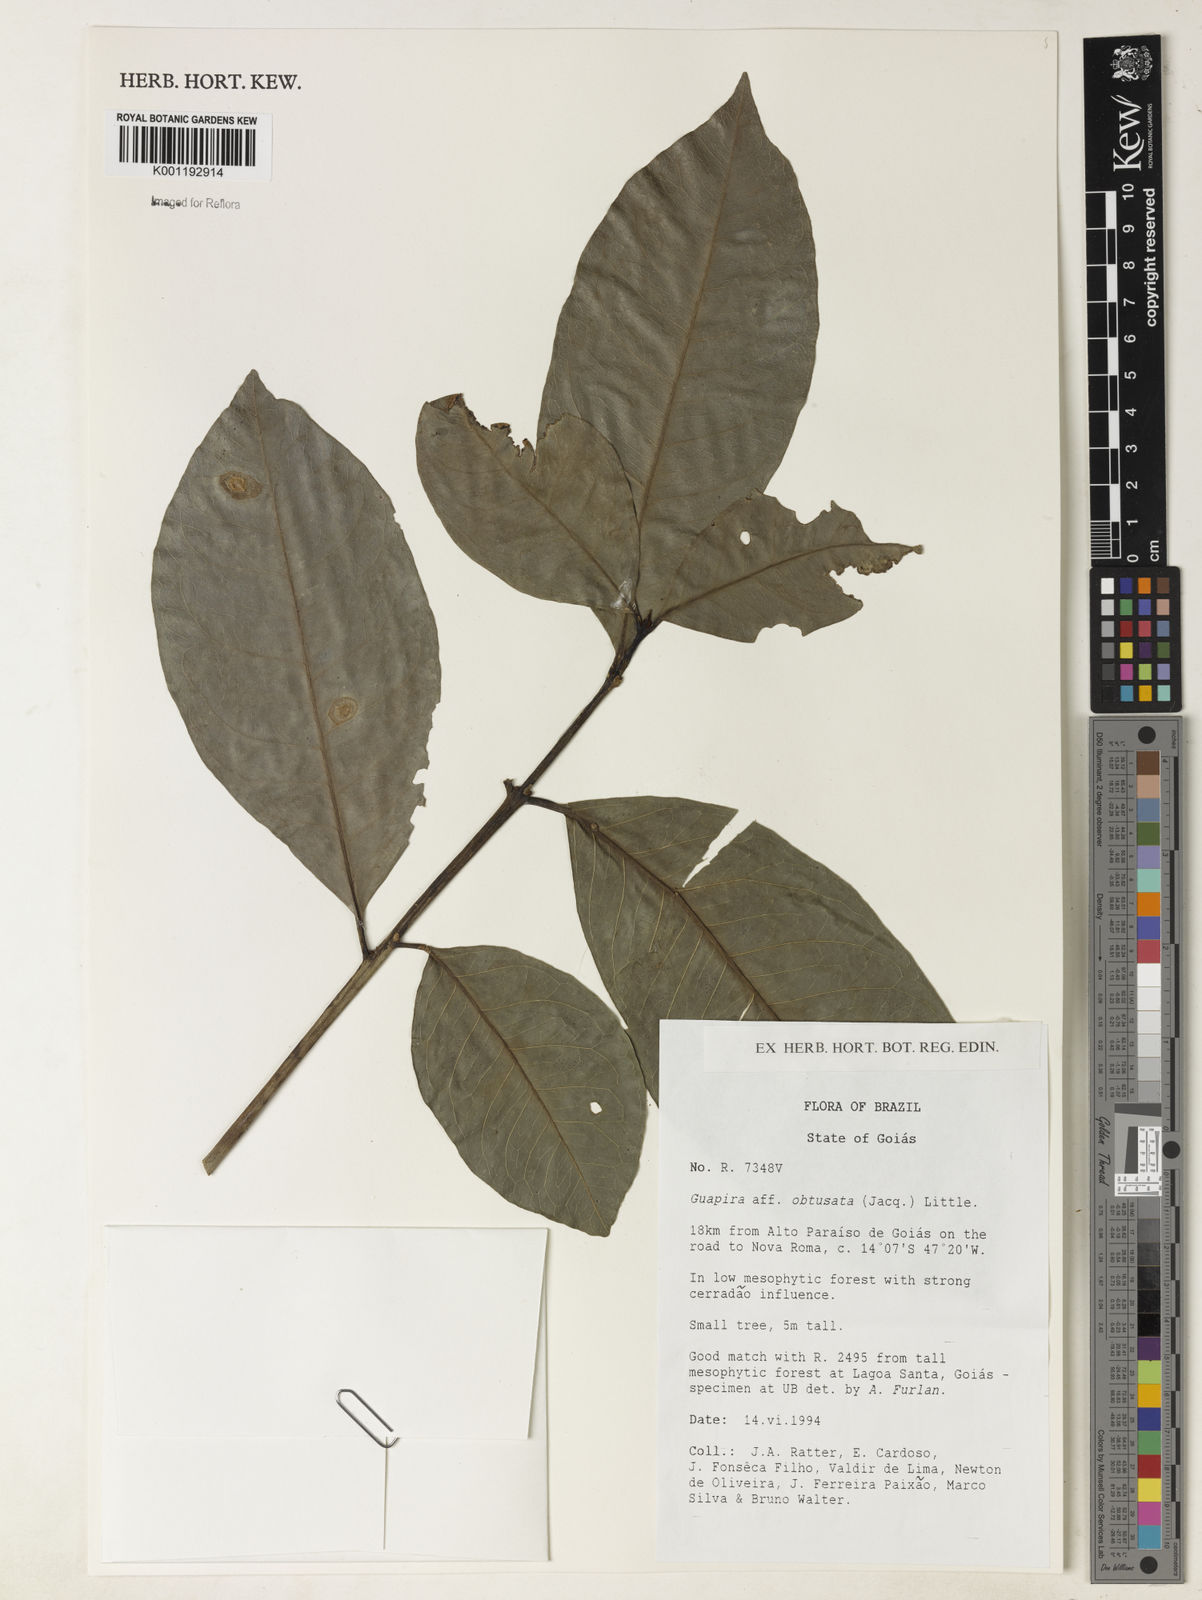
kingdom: Plantae
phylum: Tracheophyta
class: Magnoliopsida
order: Caryophyllales
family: Nyctaginaceae
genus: Guapira
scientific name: Guapira obtusata
